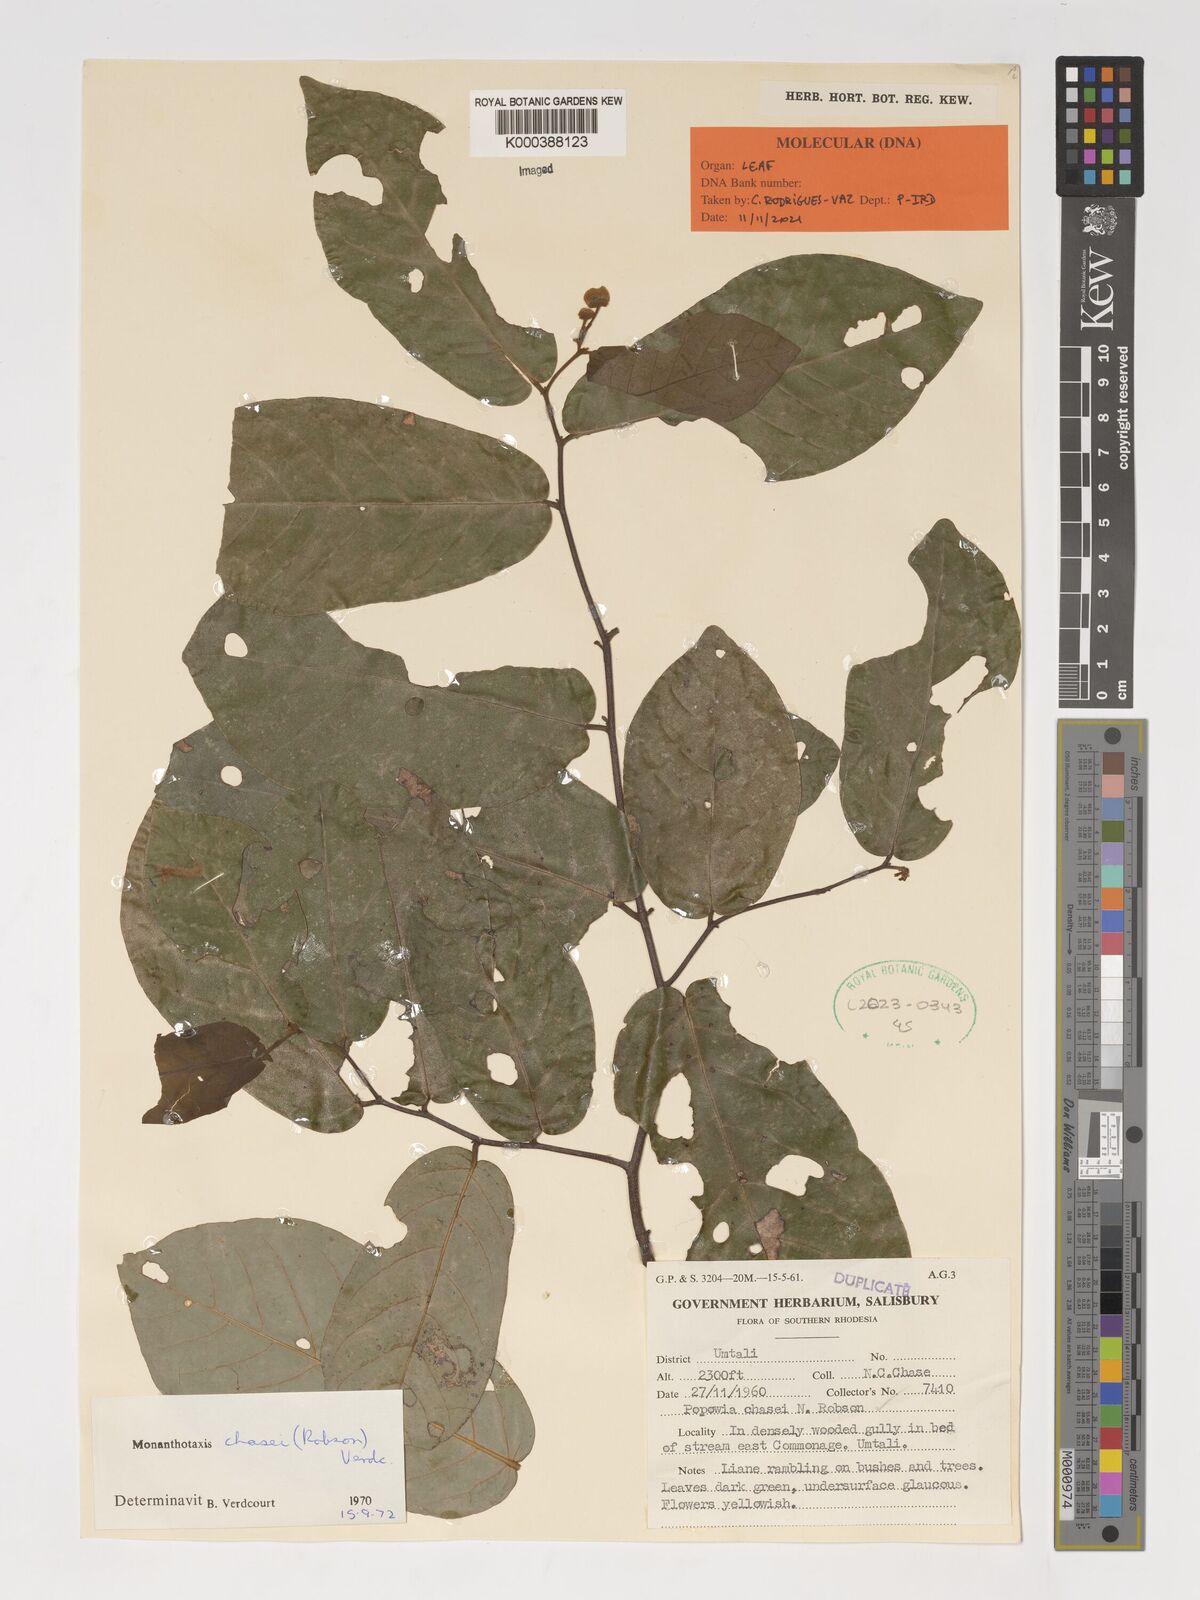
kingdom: Plantae
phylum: Tracheophyta
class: Magnoliopsida
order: Magnoliales
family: Annonaceae
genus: Monanthotaxis
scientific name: Monanthotaxis chasei
